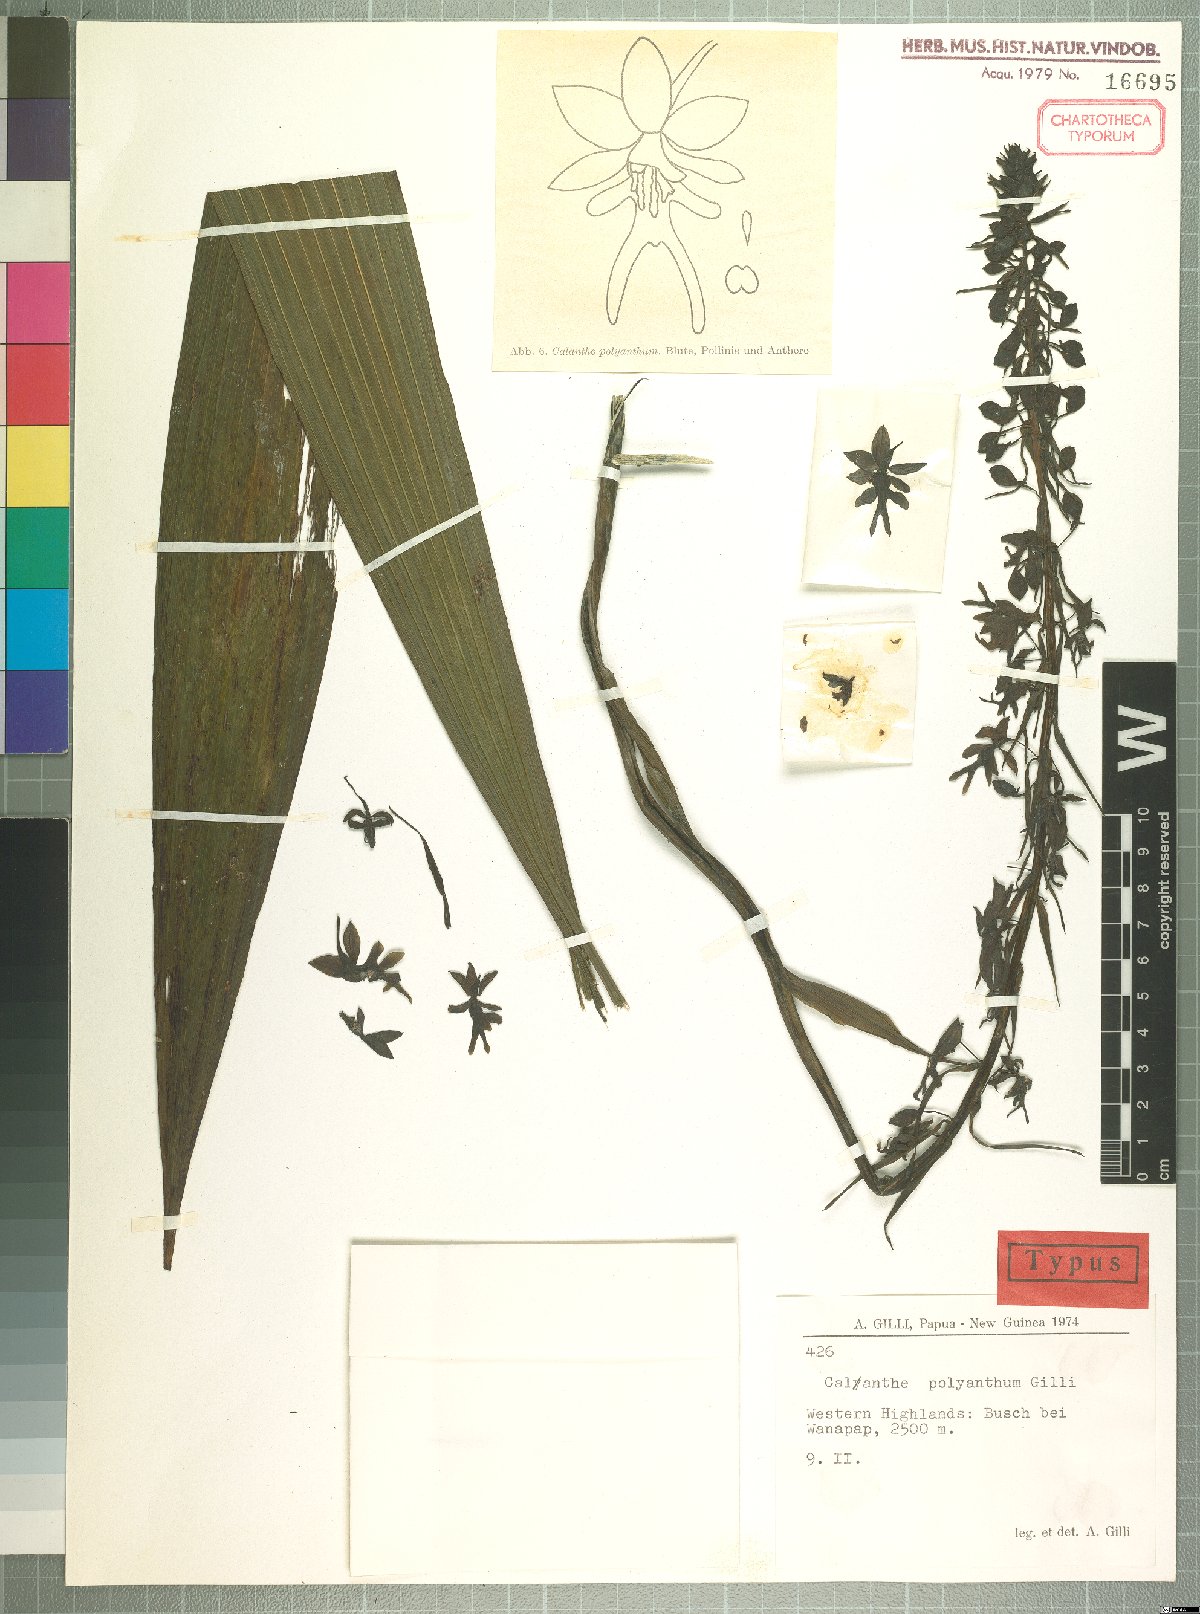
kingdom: Plantae
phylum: Tracheophyta
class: Liliopsida
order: Asparagales
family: Orchidaceae
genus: Calanthe
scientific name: Calanthe polyantha
